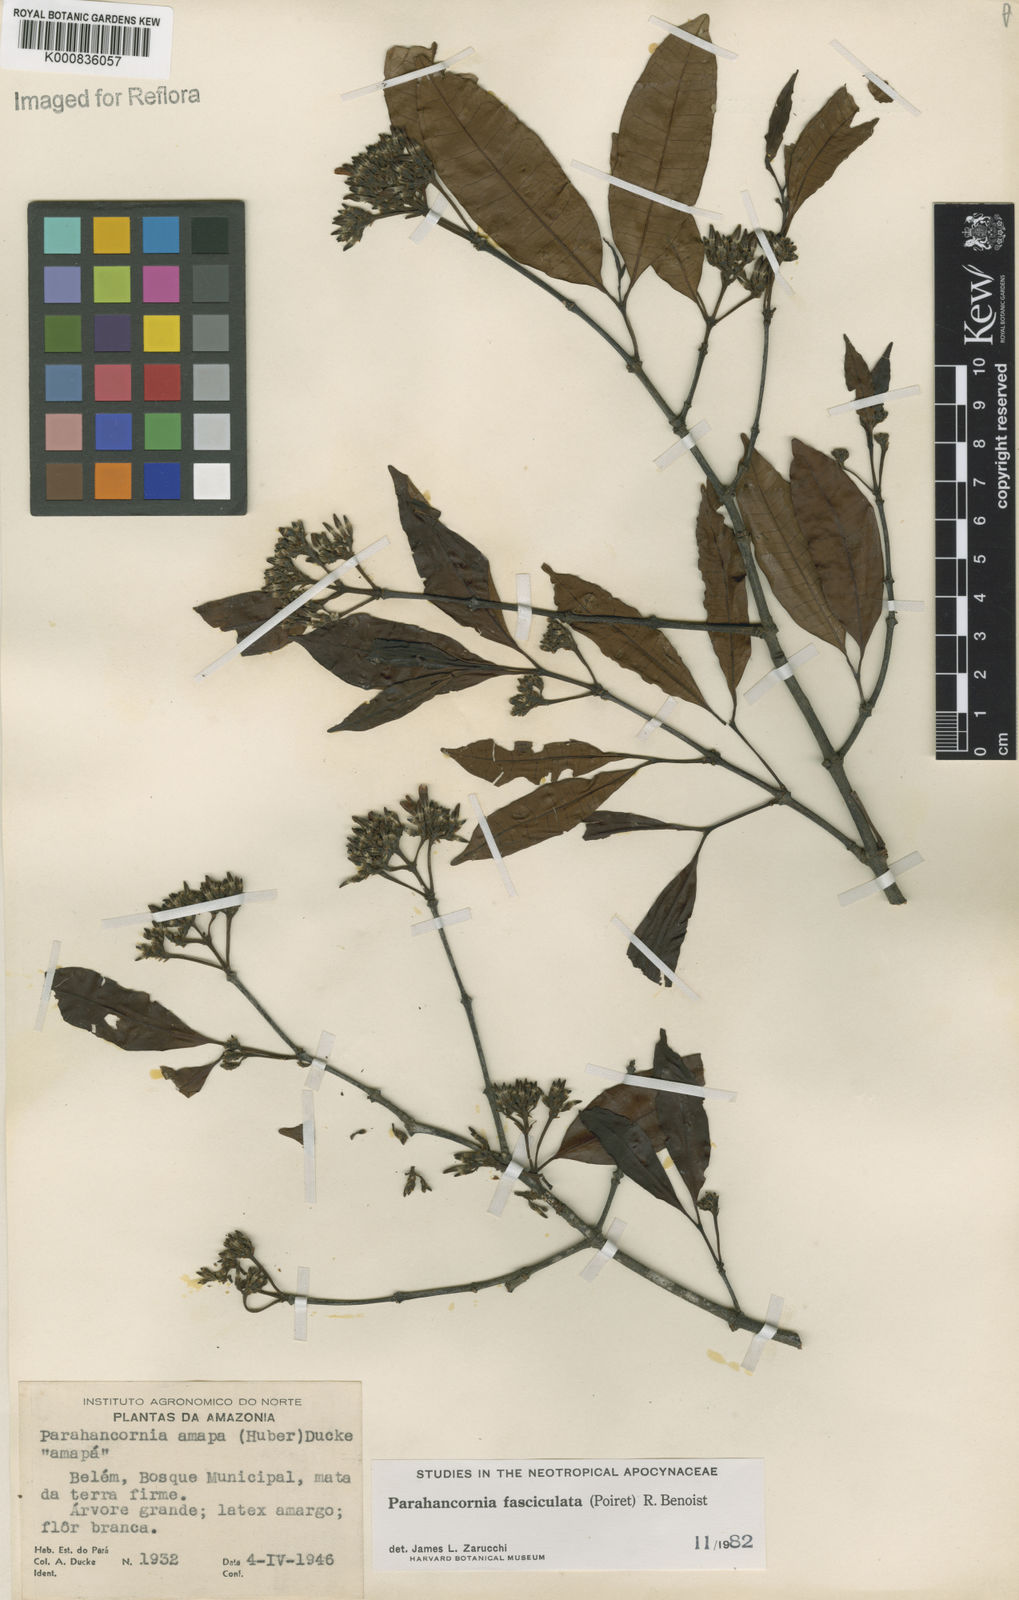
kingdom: Plantae
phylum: Tracheophyta
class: Magnoliopsida
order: Gentianales
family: Apocynaceae
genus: Parahancornia
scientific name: Parahancornia fasciculata
